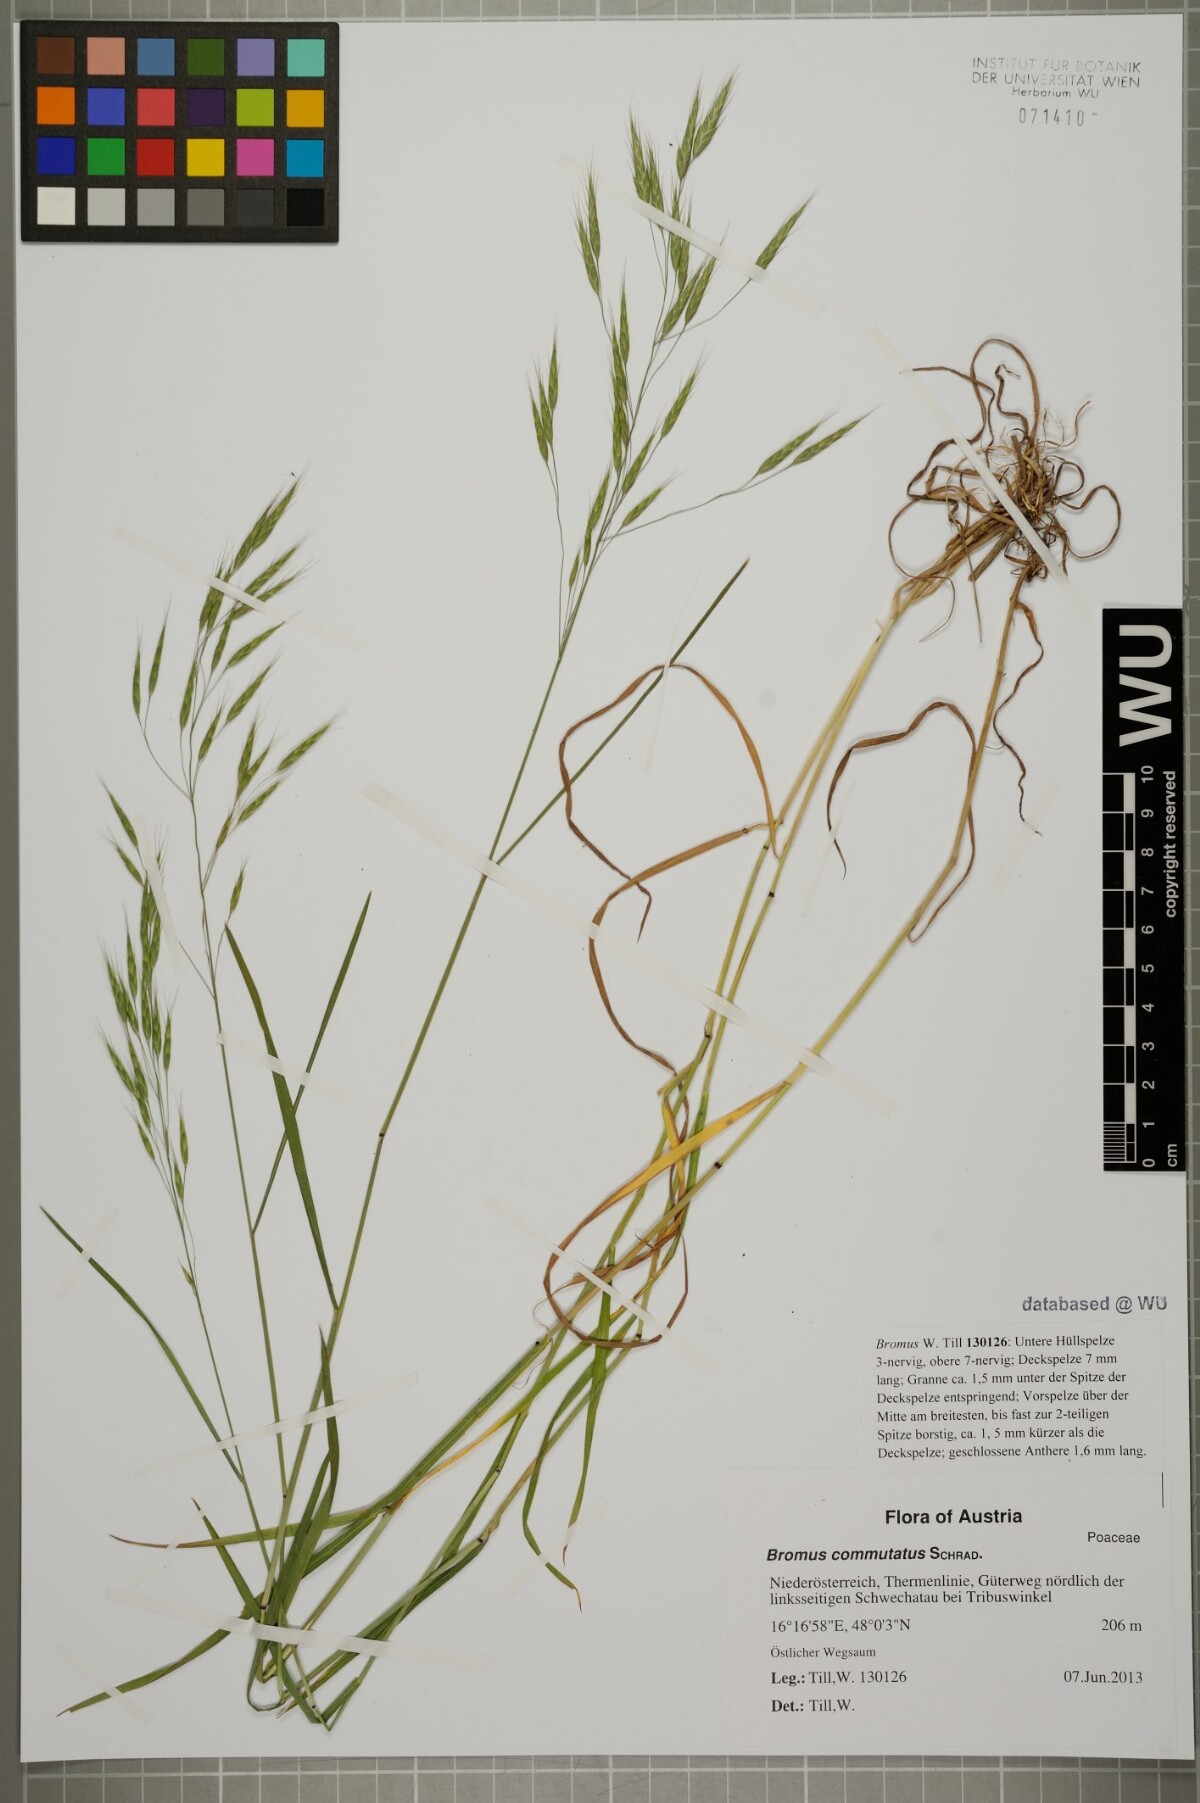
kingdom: Plantae
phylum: Tracheophyta
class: Liliopsida
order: Poales
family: Poaceae
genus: Bromus
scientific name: Bromus japonicus
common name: Japanese brome
